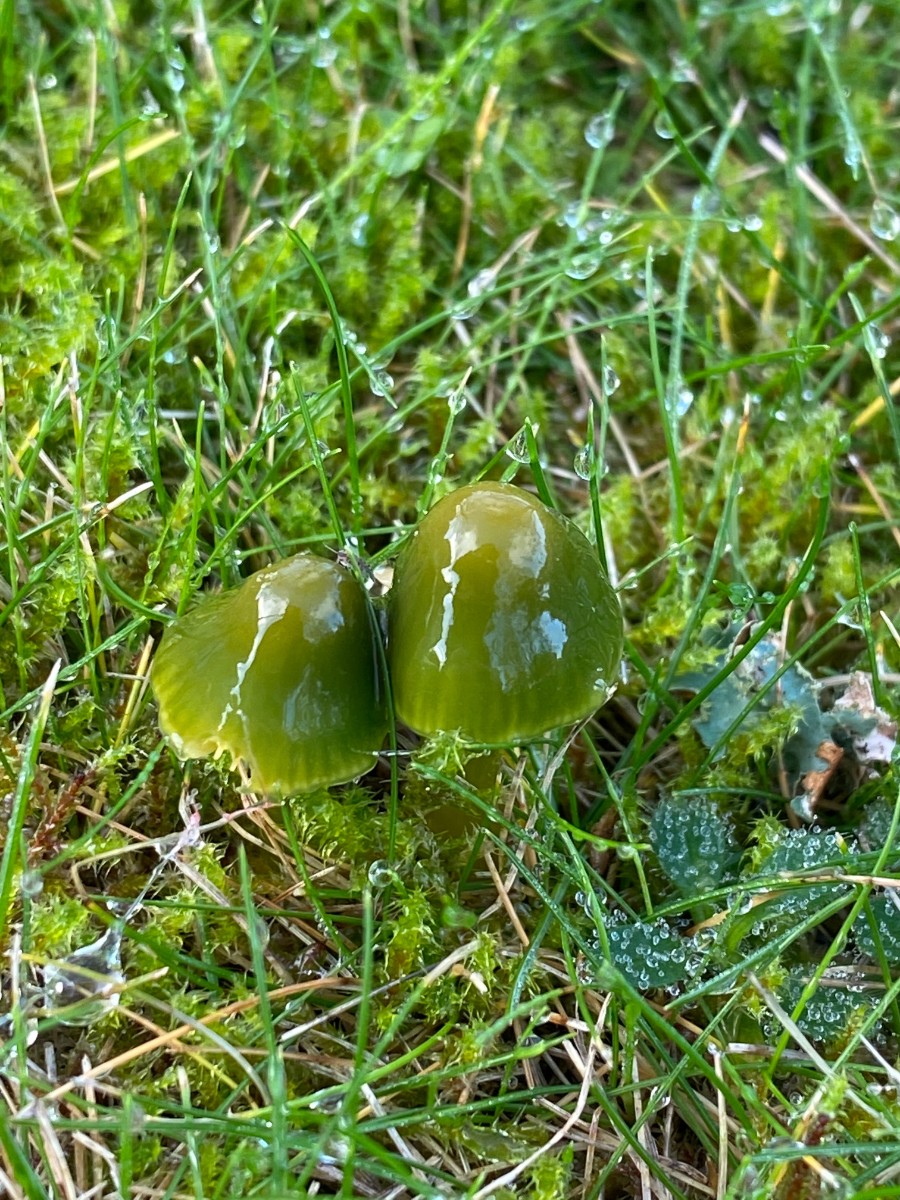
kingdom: Fungi
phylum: Basidiomycota
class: Agaricomycetes
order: Agaricales
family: Hygrophoraceae
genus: Gliophorus
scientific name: Gliophorus psittacinus
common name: papegøje-vokshat
